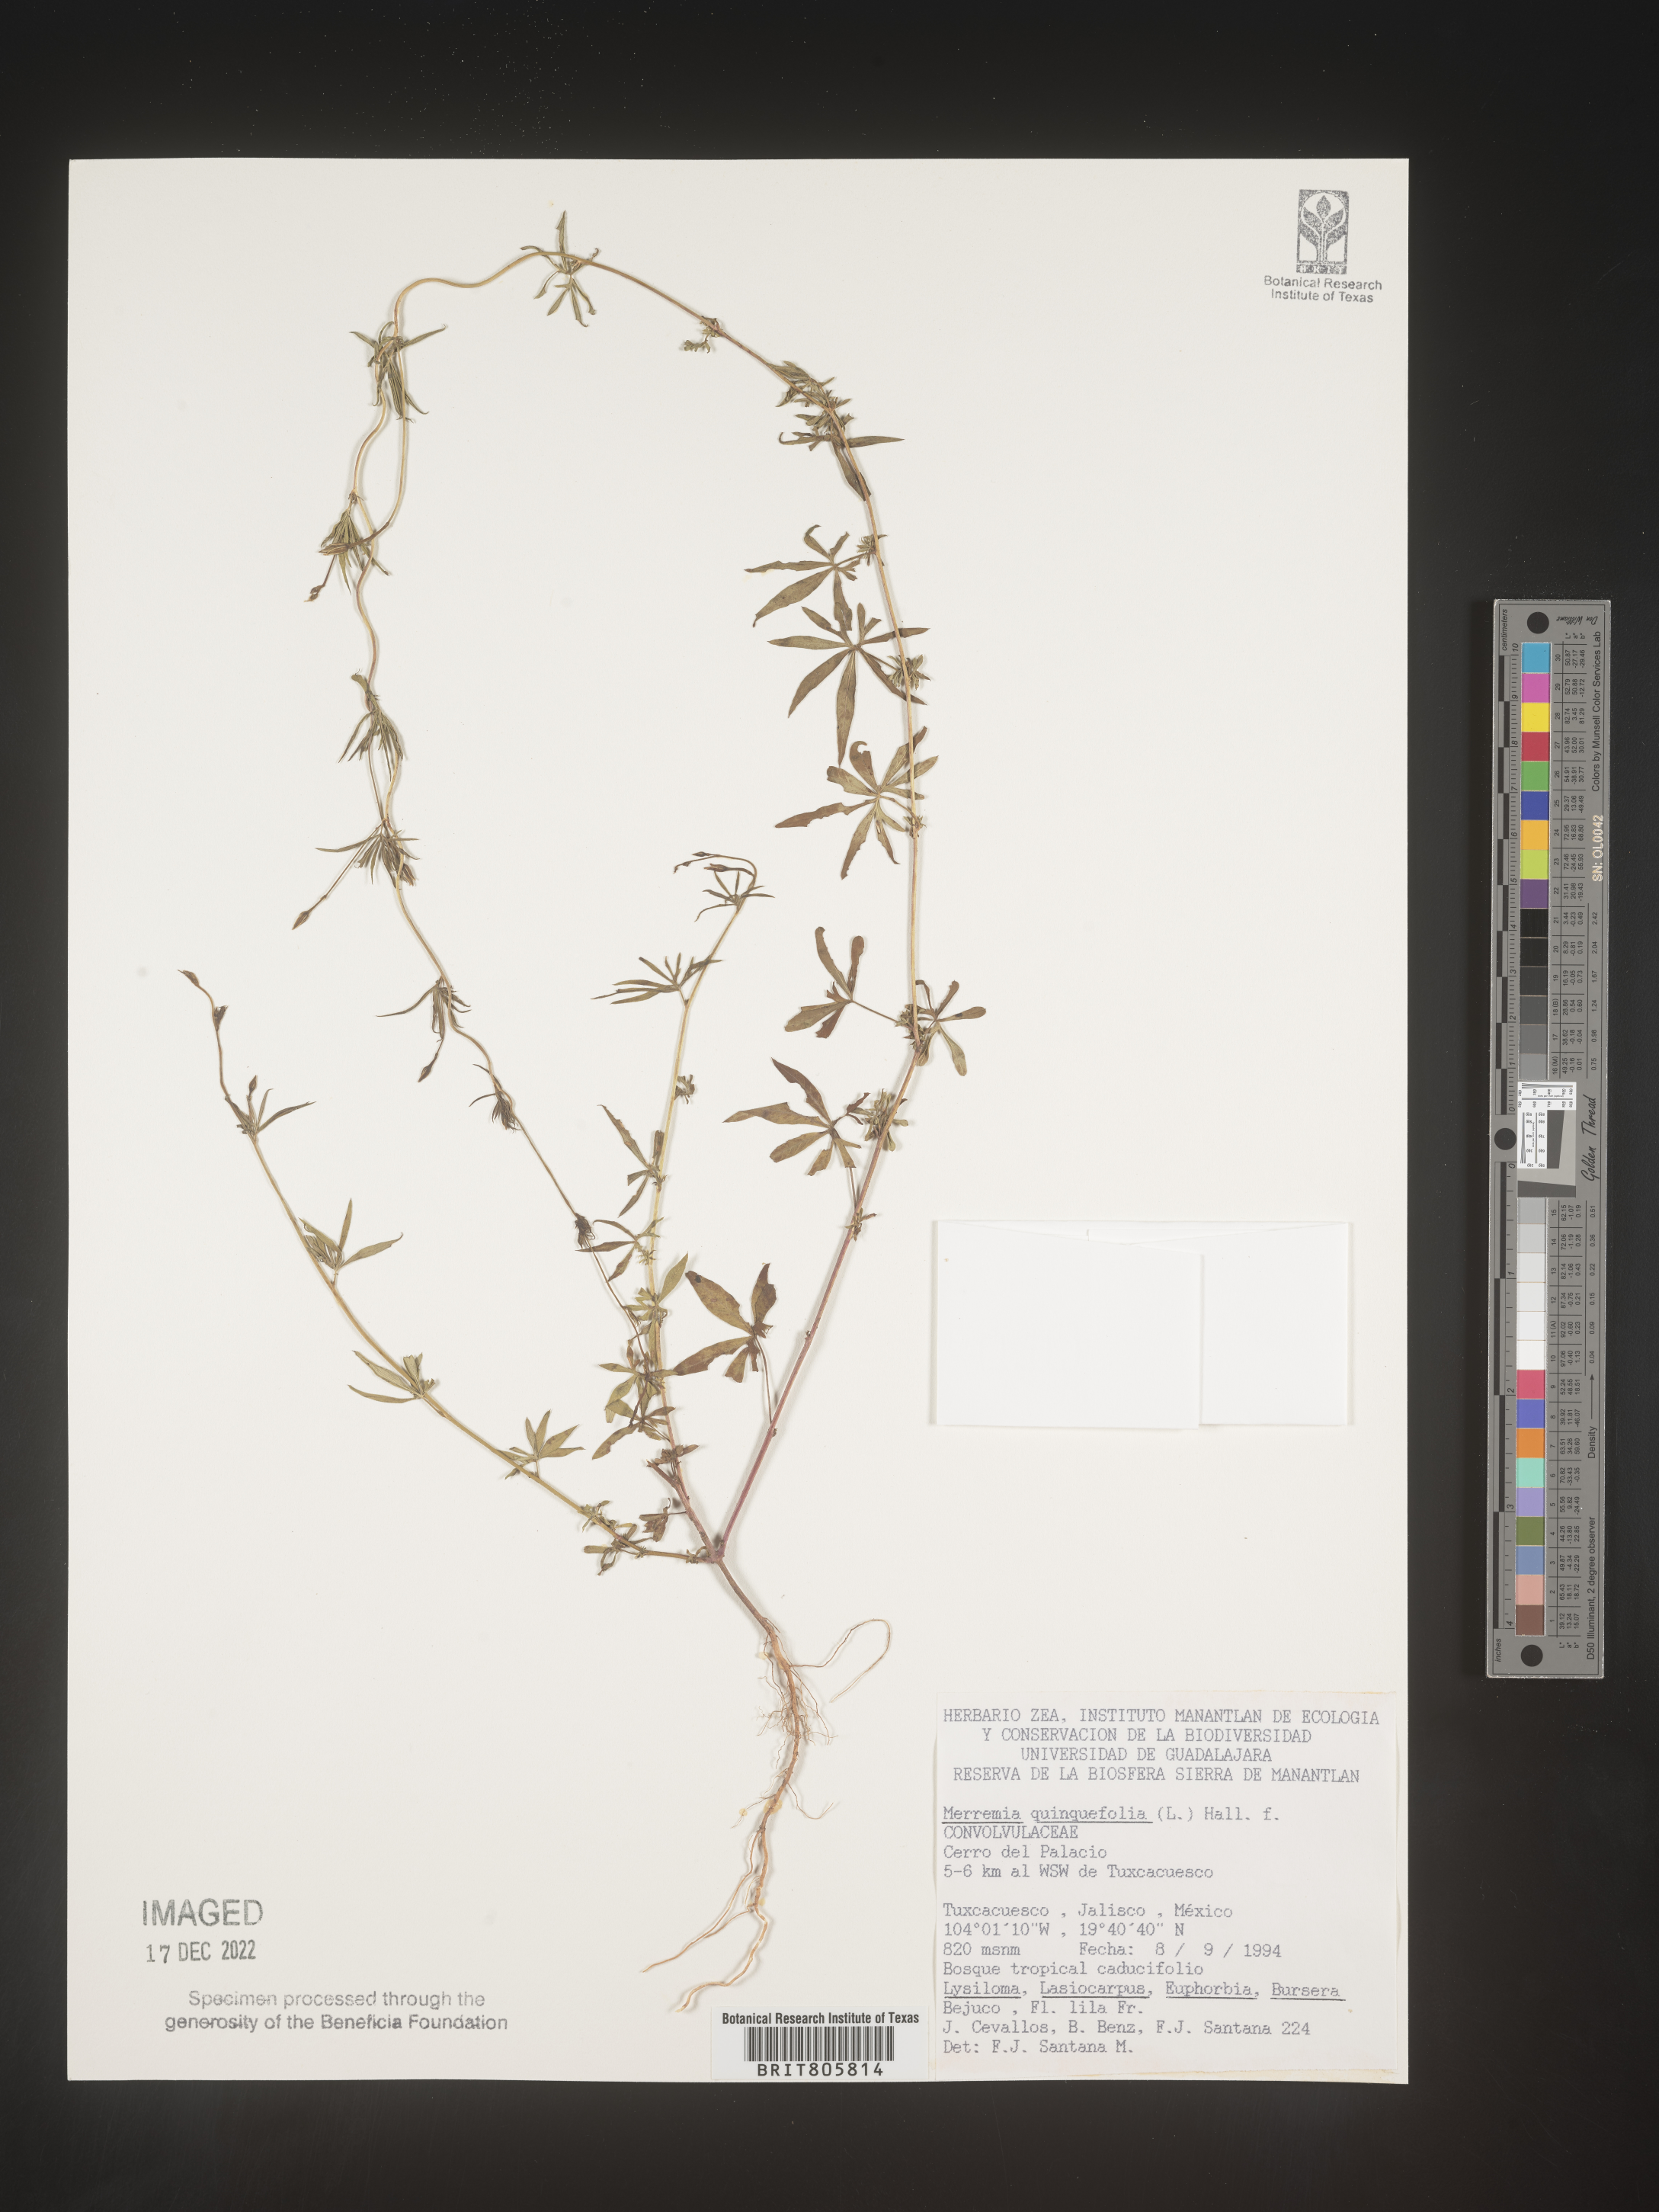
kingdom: Plantae
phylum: Tracheophyta
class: Magnoliopsida
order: Solanales
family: Convolvulaceae
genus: Merremia
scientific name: Merremia
